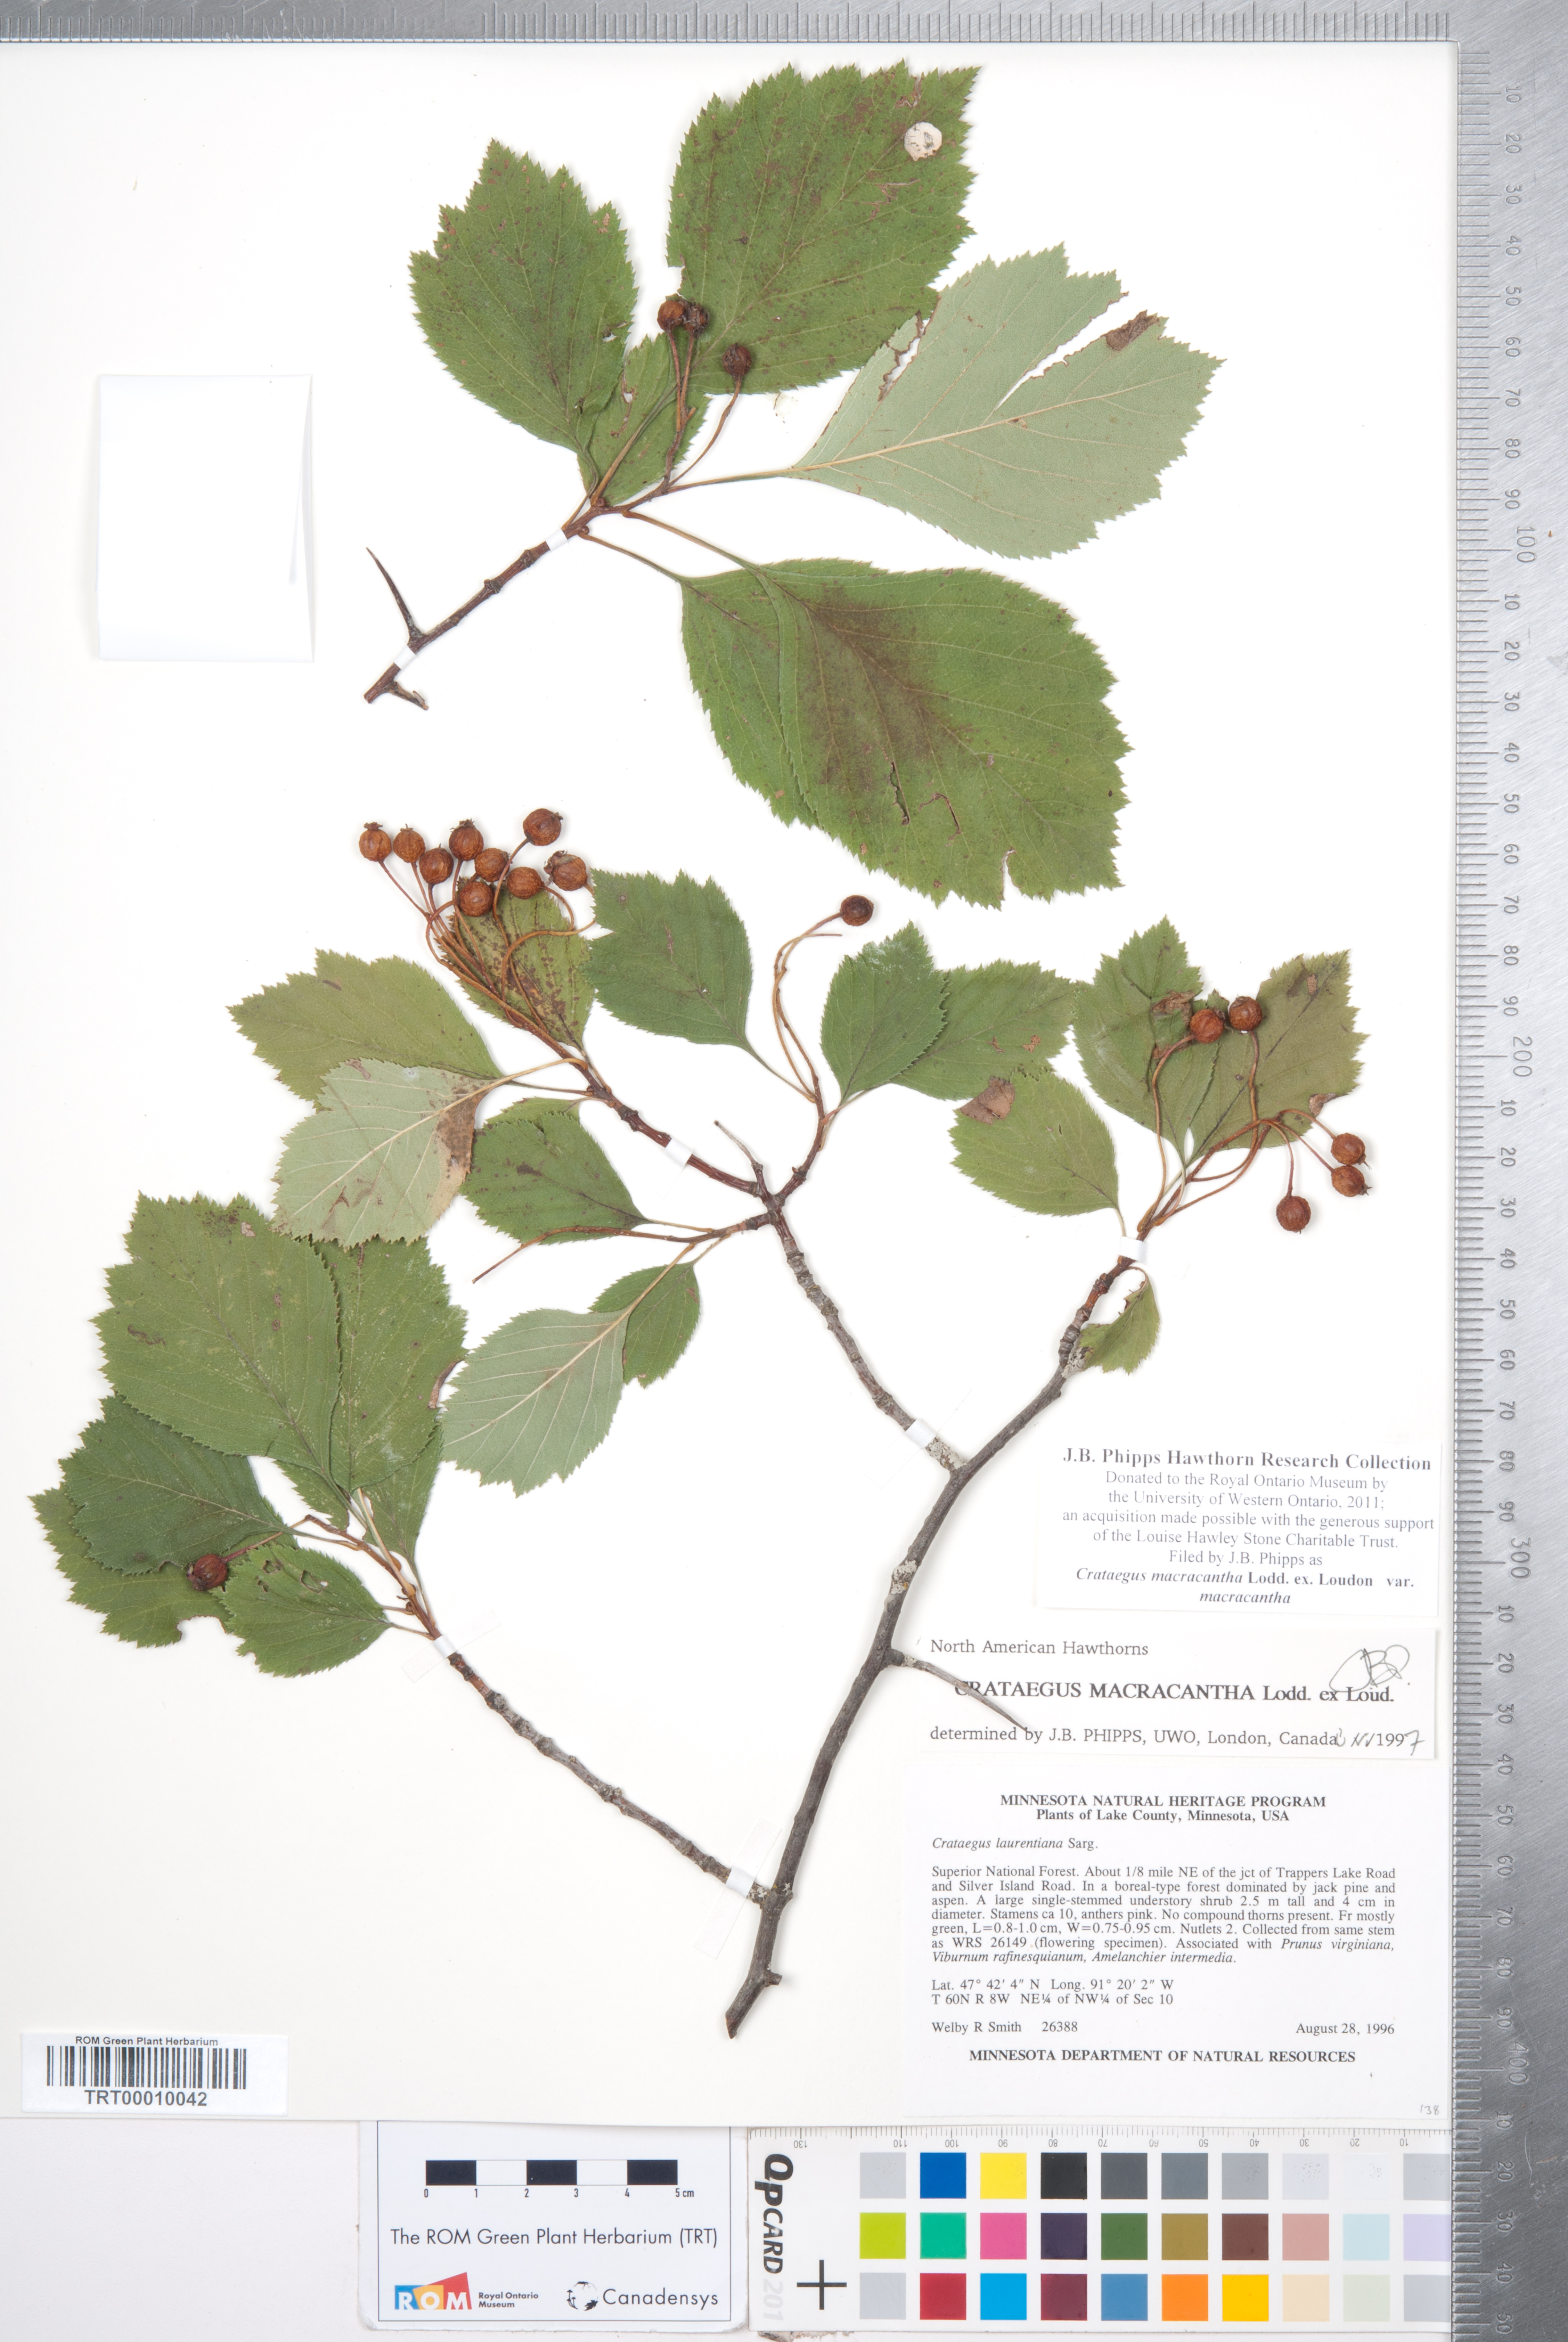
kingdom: Plantae
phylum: Tracheophyta
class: Magnoliopsida
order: Rosales
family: Rosaceae
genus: Crataegus
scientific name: Crataegus macracantha
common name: Large-thorn hawthorn
